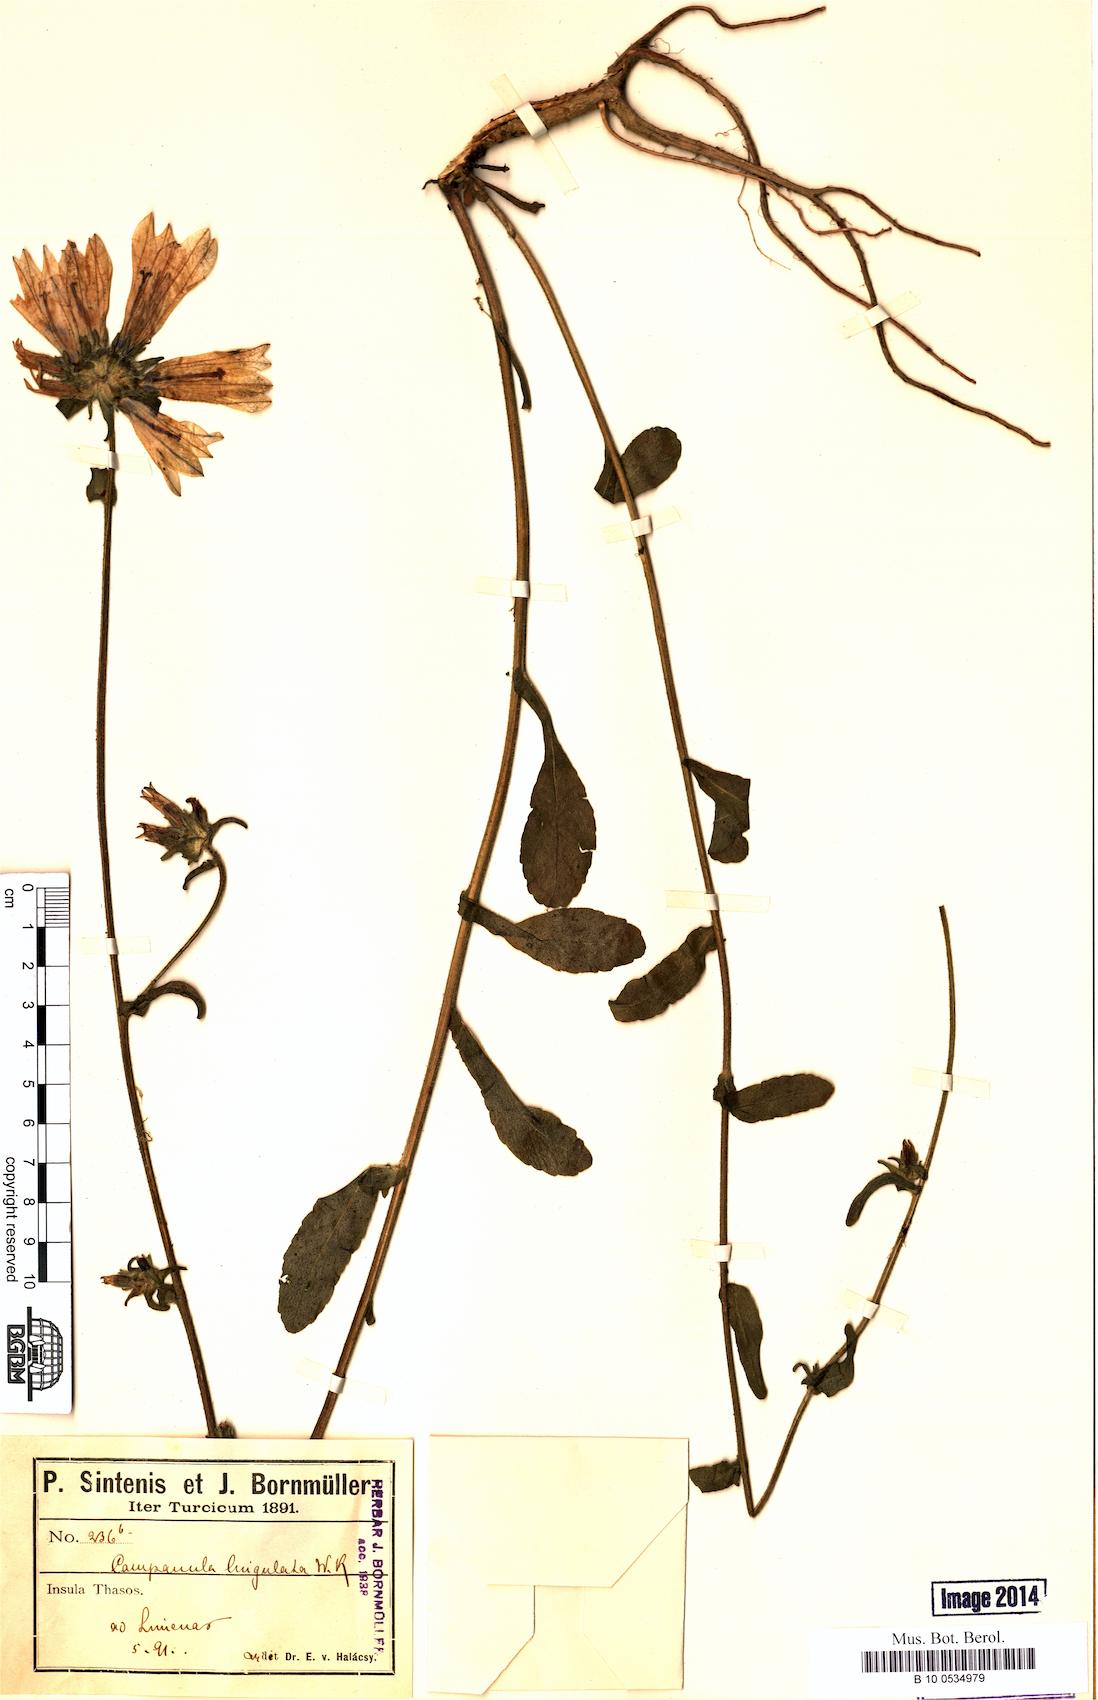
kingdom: Plantae
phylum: Tracheophyta
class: Magnoliopsida
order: Asterales
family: Campanulaceae
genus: Campanula
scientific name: Campanula lingulata
